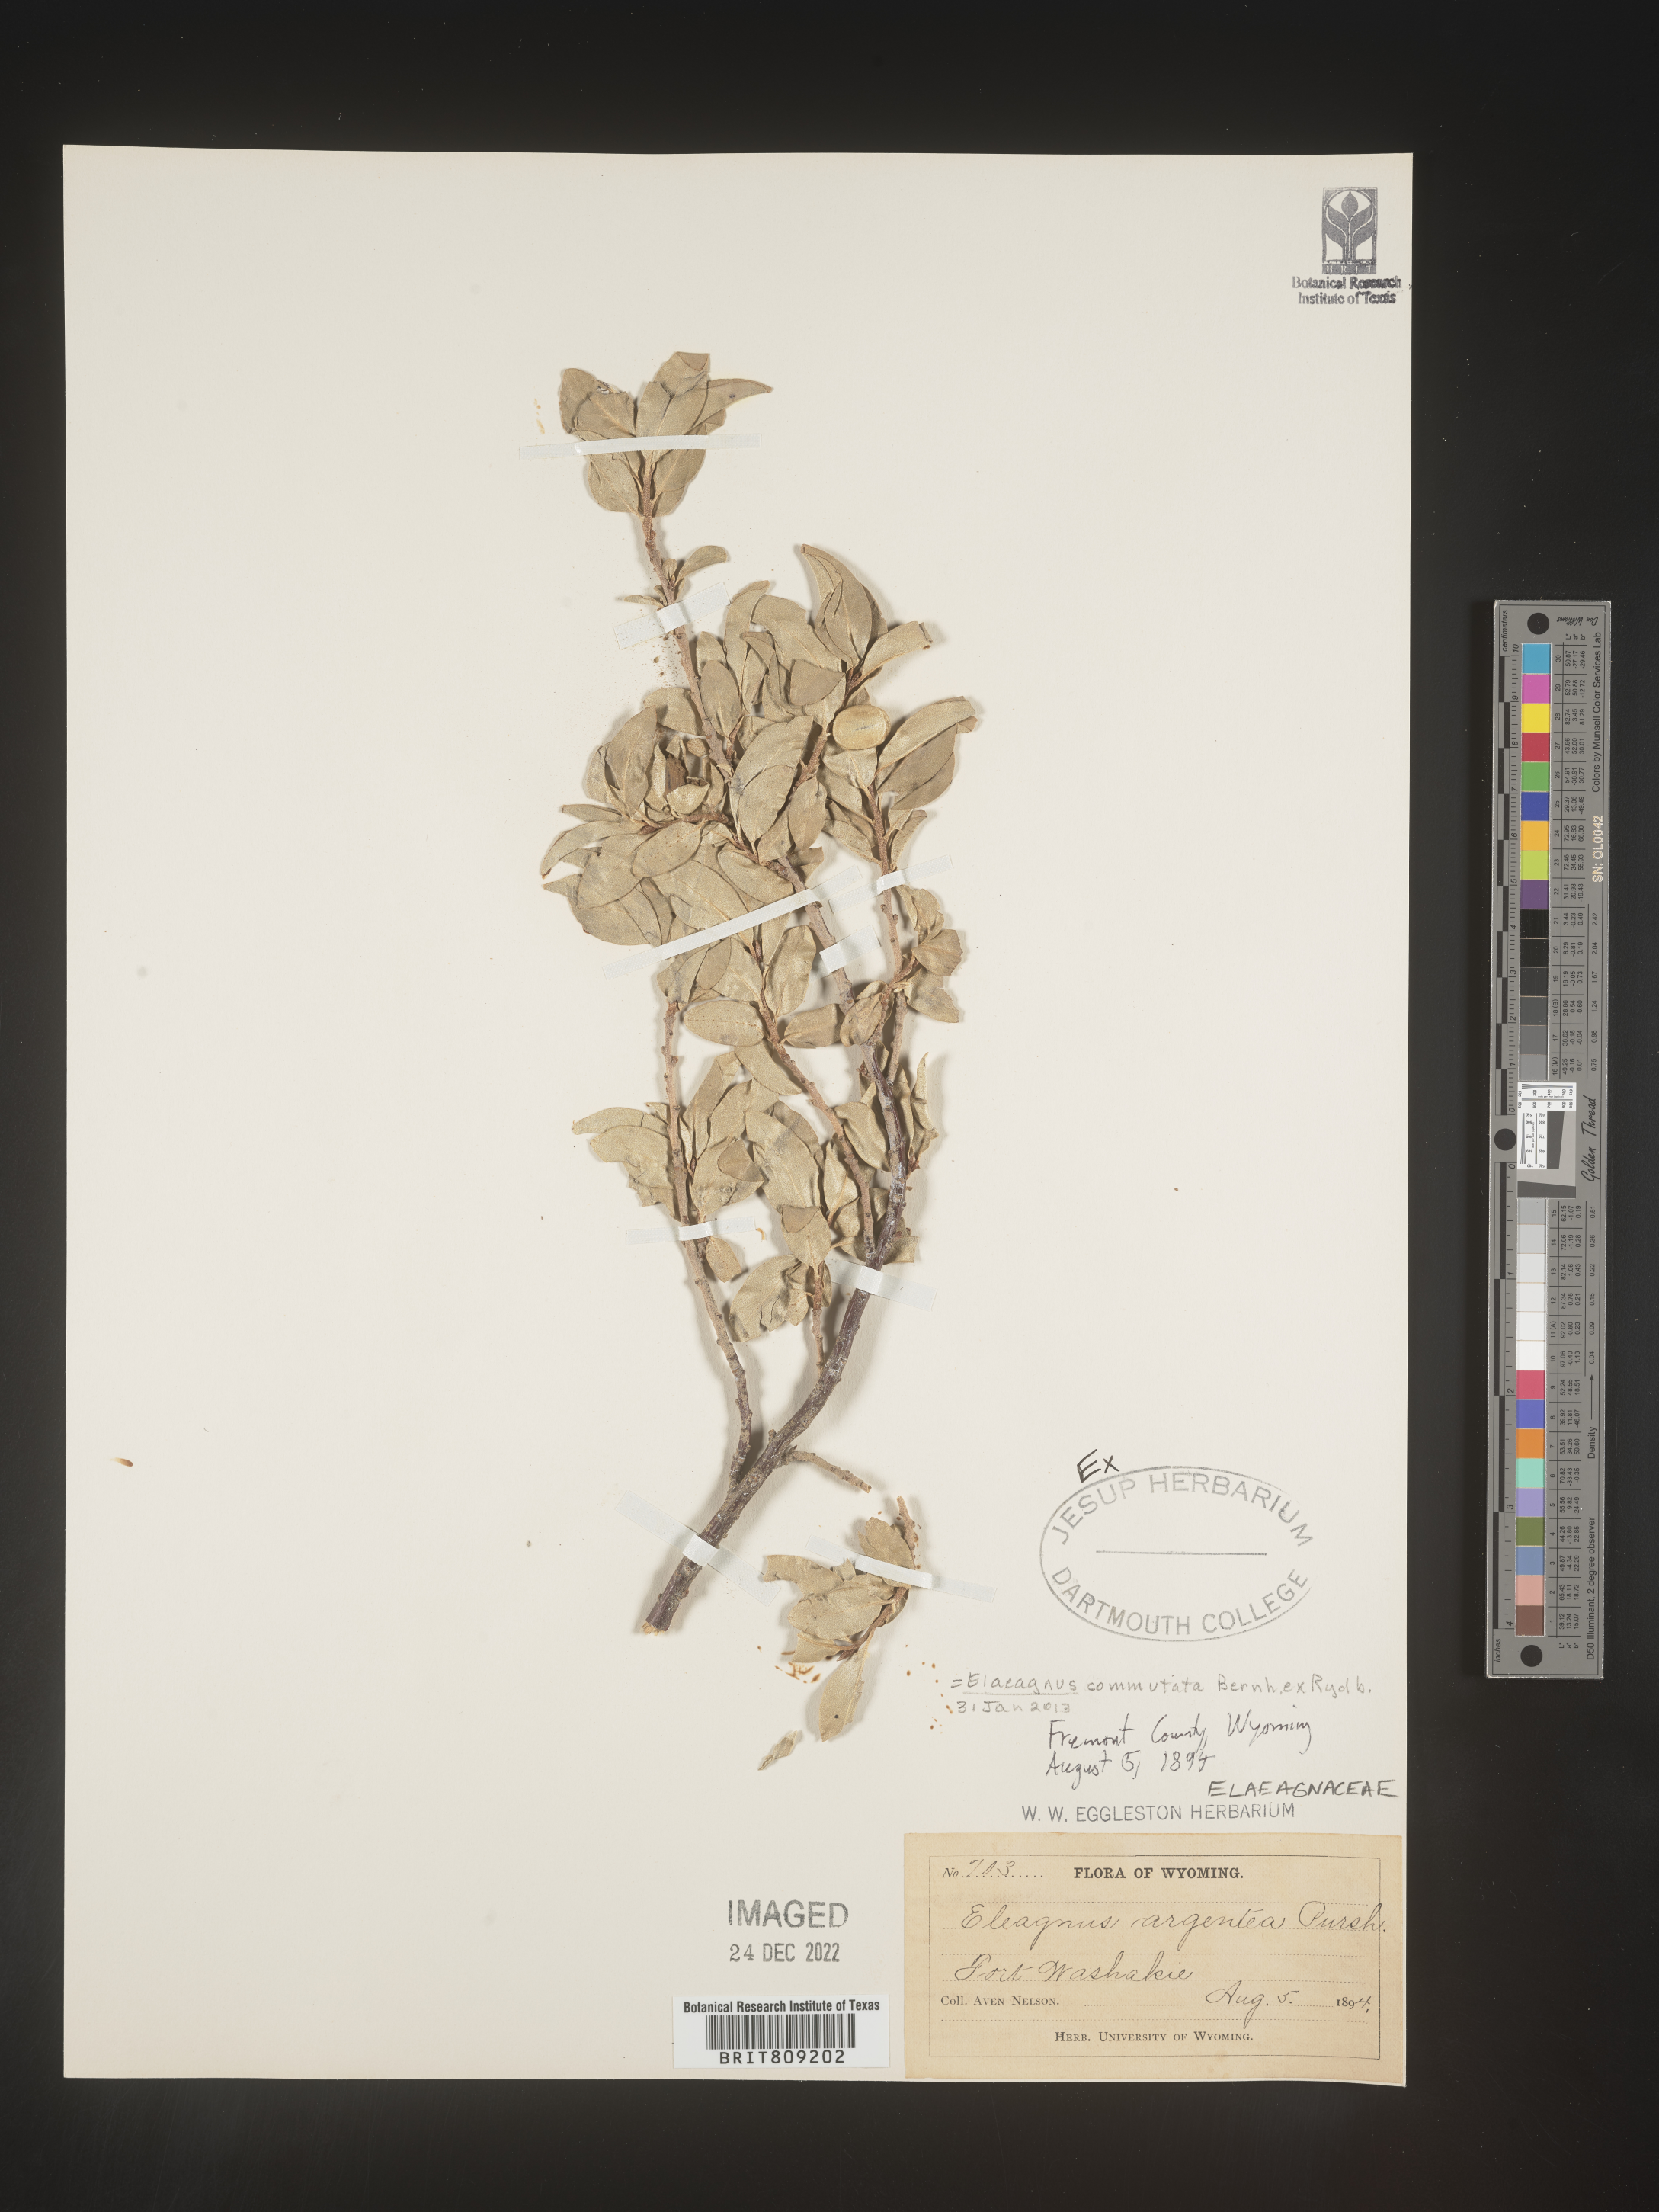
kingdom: Plantae
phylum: Tracheophyta
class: Magnoliopsida
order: Rosales
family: Elaeagnaceae
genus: Elaeagnus
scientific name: Elaeagnus
